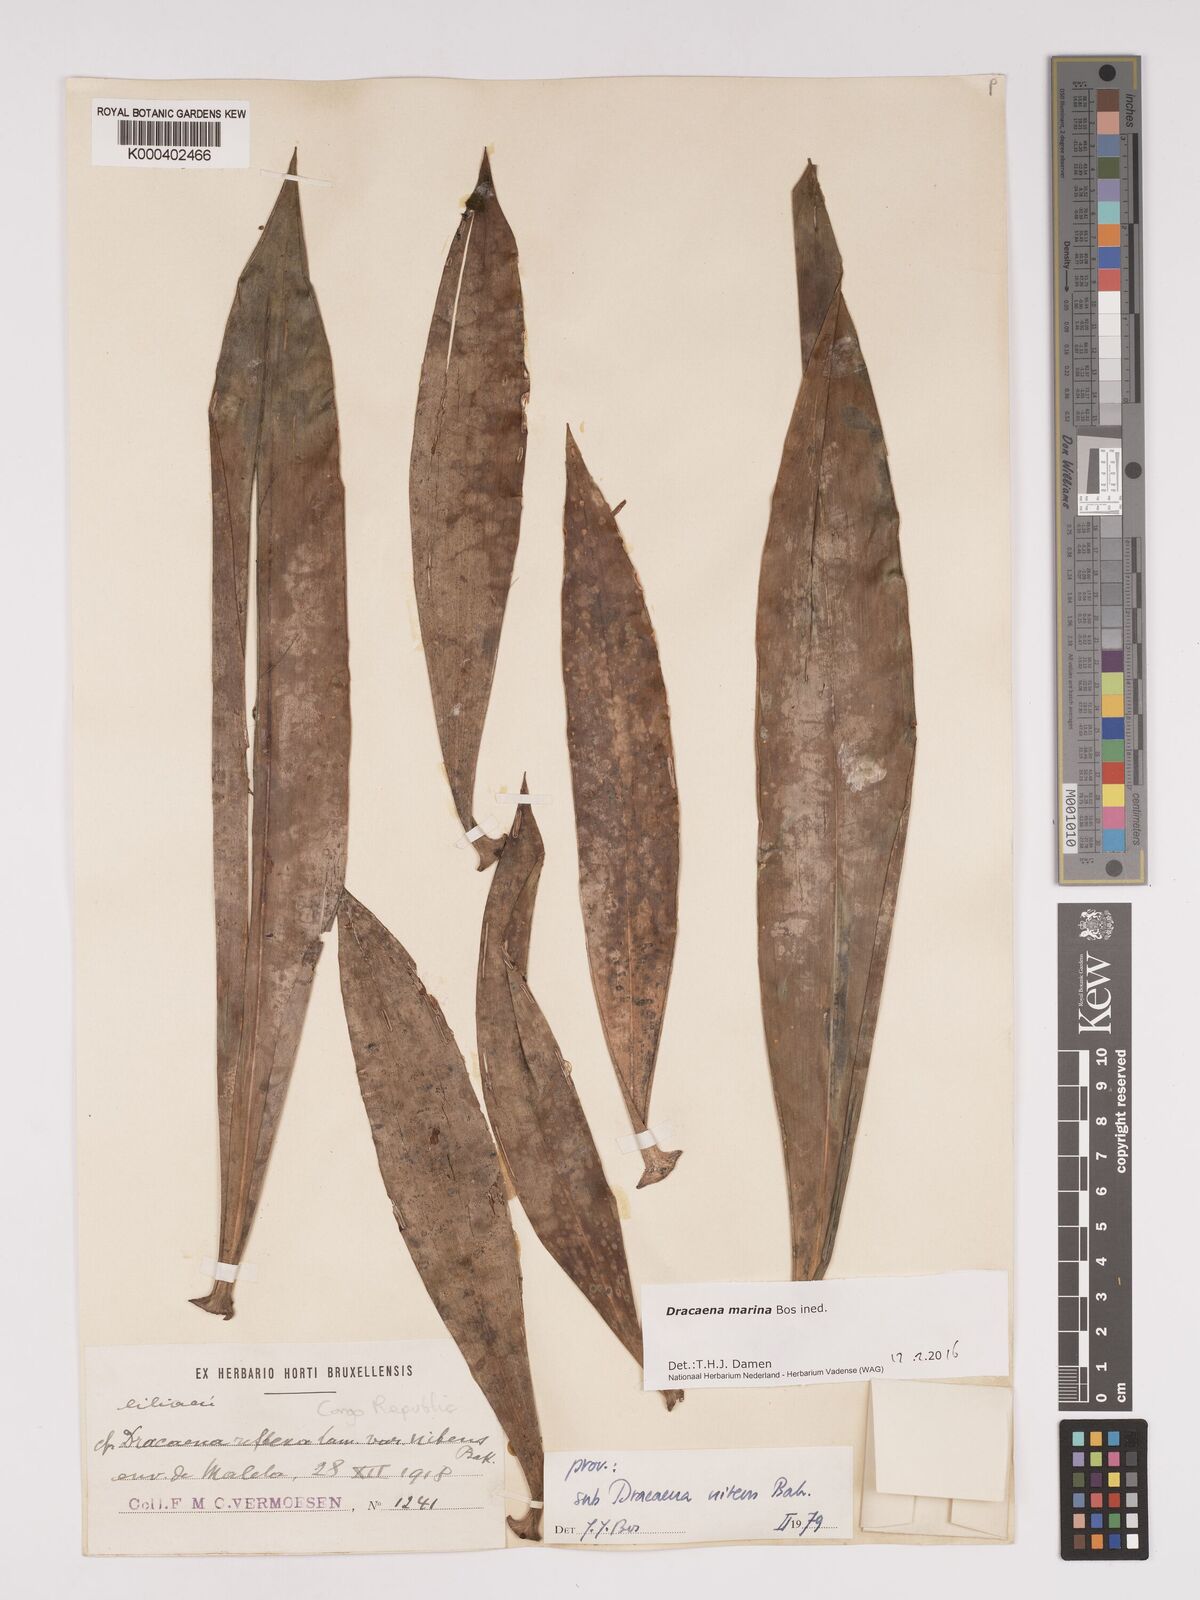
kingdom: Plantae
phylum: Tracheophyta
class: Liliopsida
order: Asparagales
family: Asparagaceae
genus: Dracaena
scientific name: Dracaena marina
